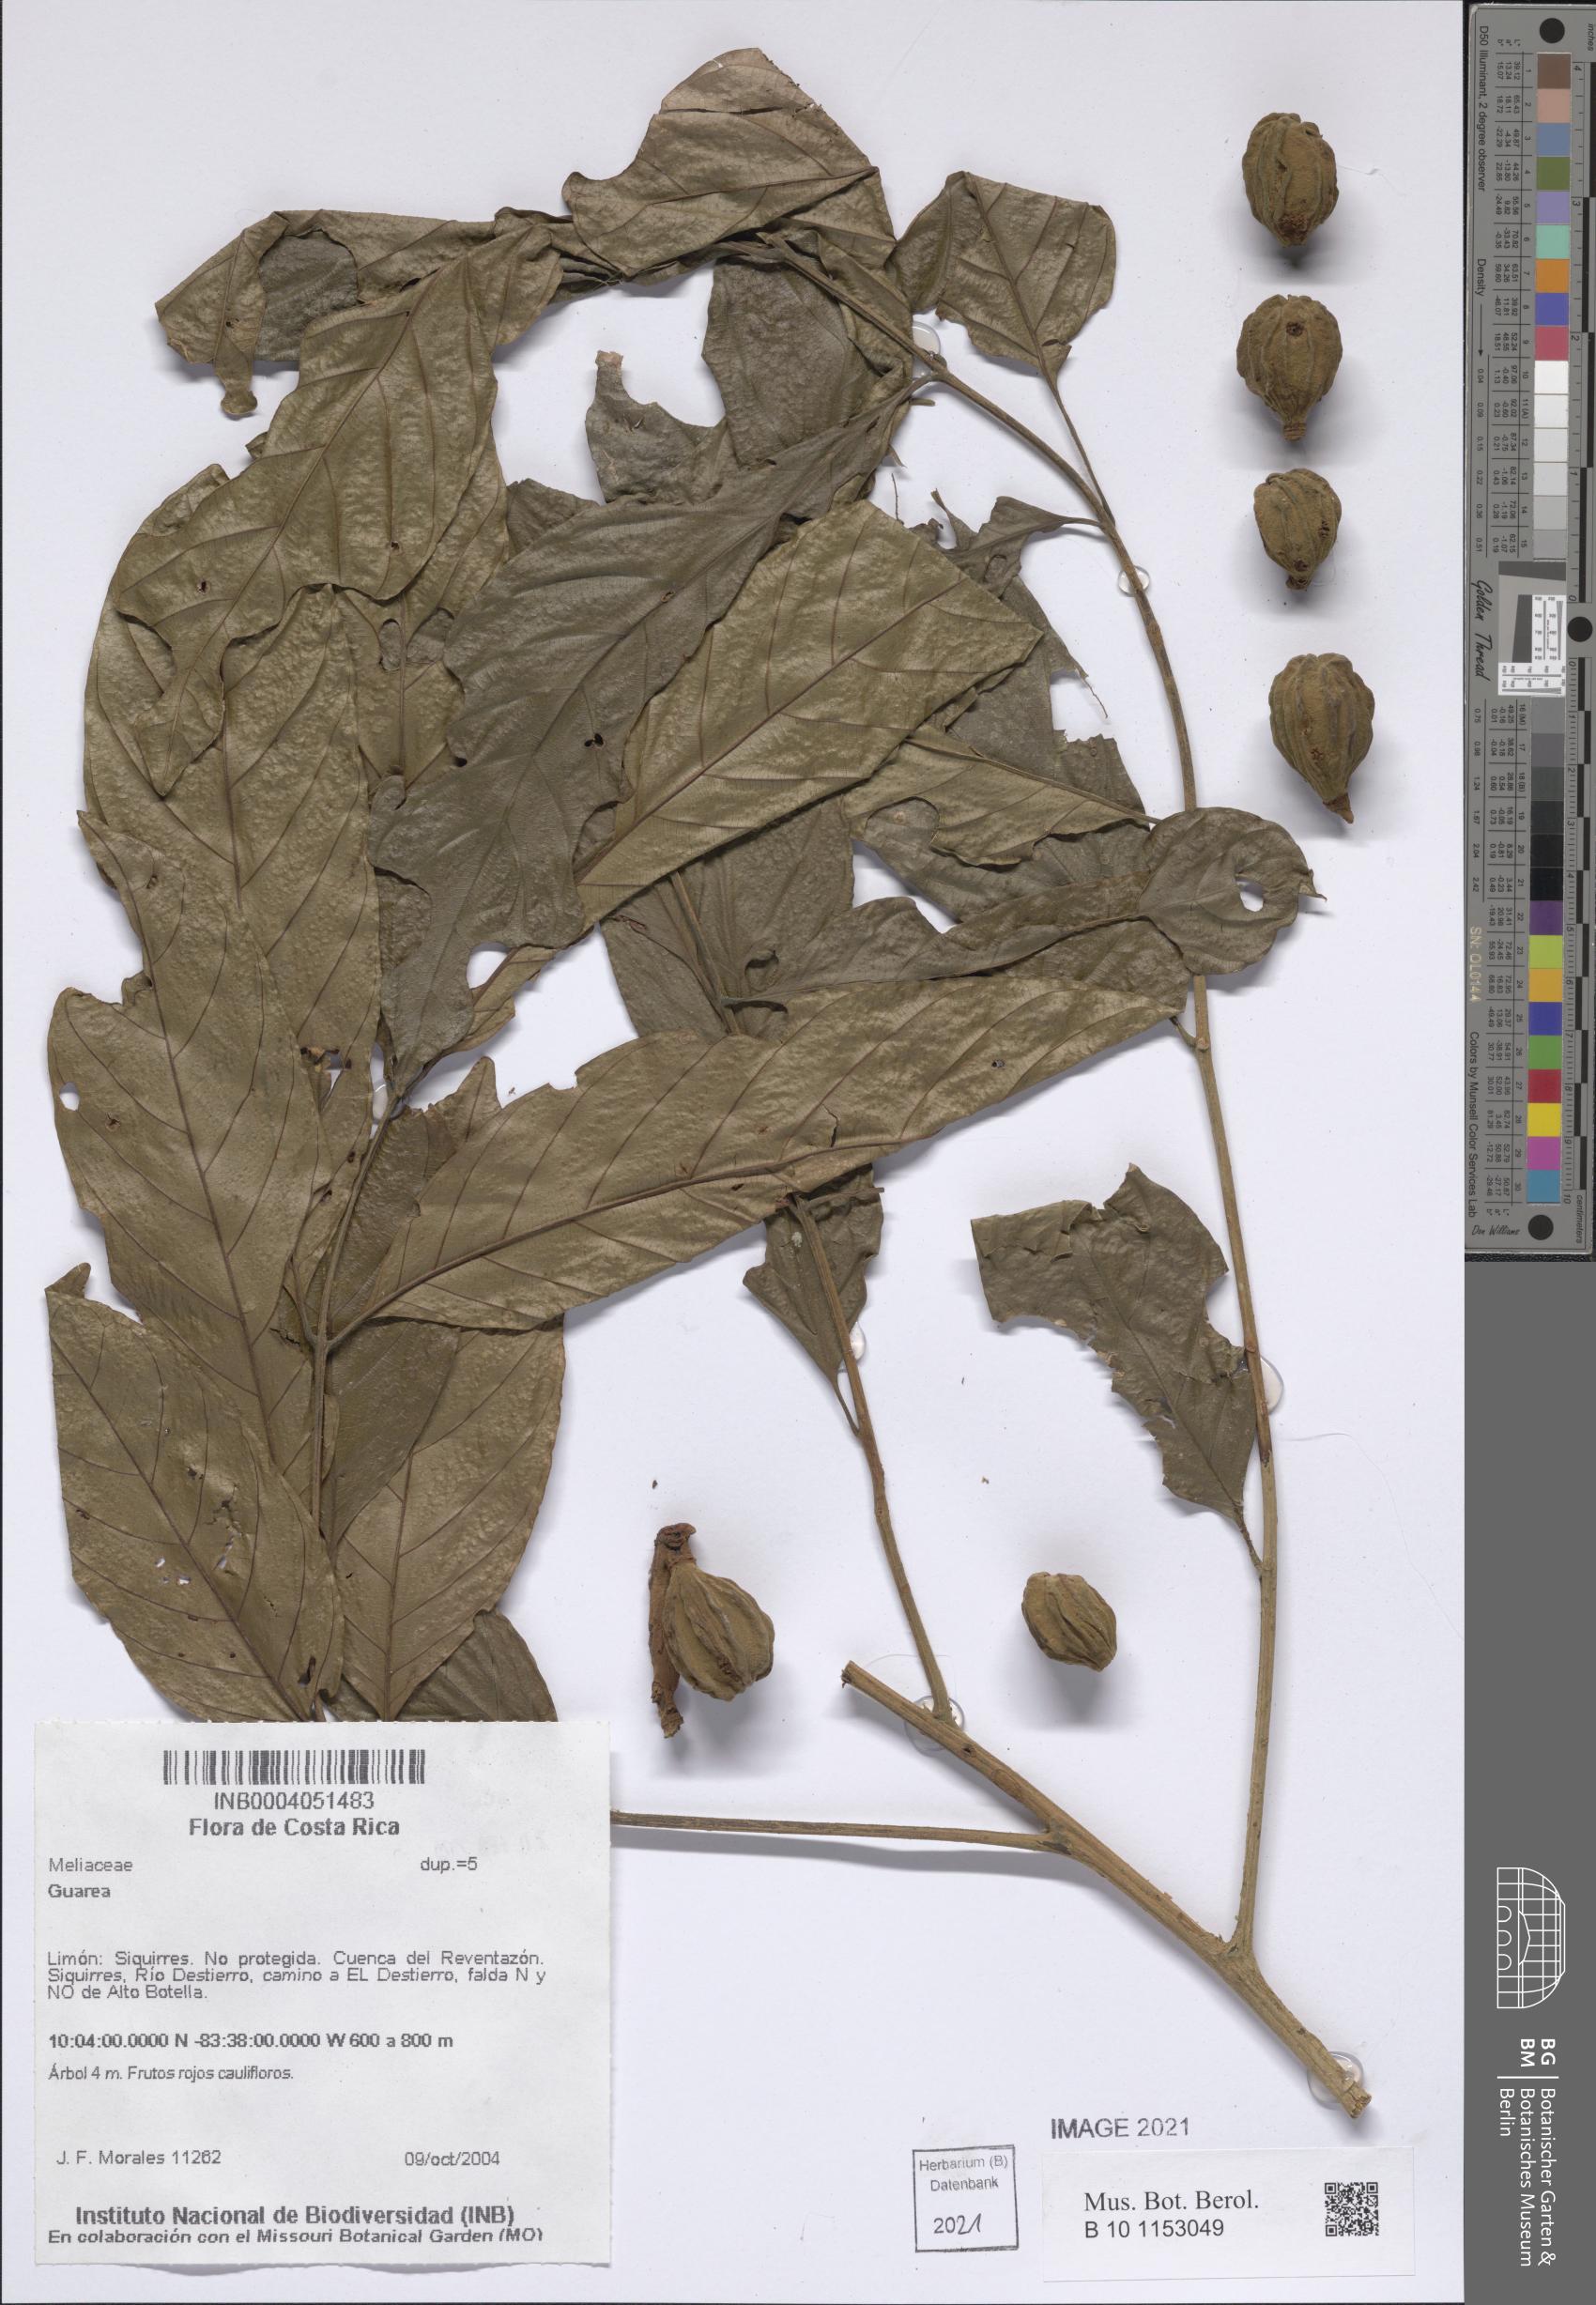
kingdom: Plantae
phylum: Tracheophyta
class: Magnoliopsida
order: Sapindales
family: Meliaceae
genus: Guarea
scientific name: Guarea
